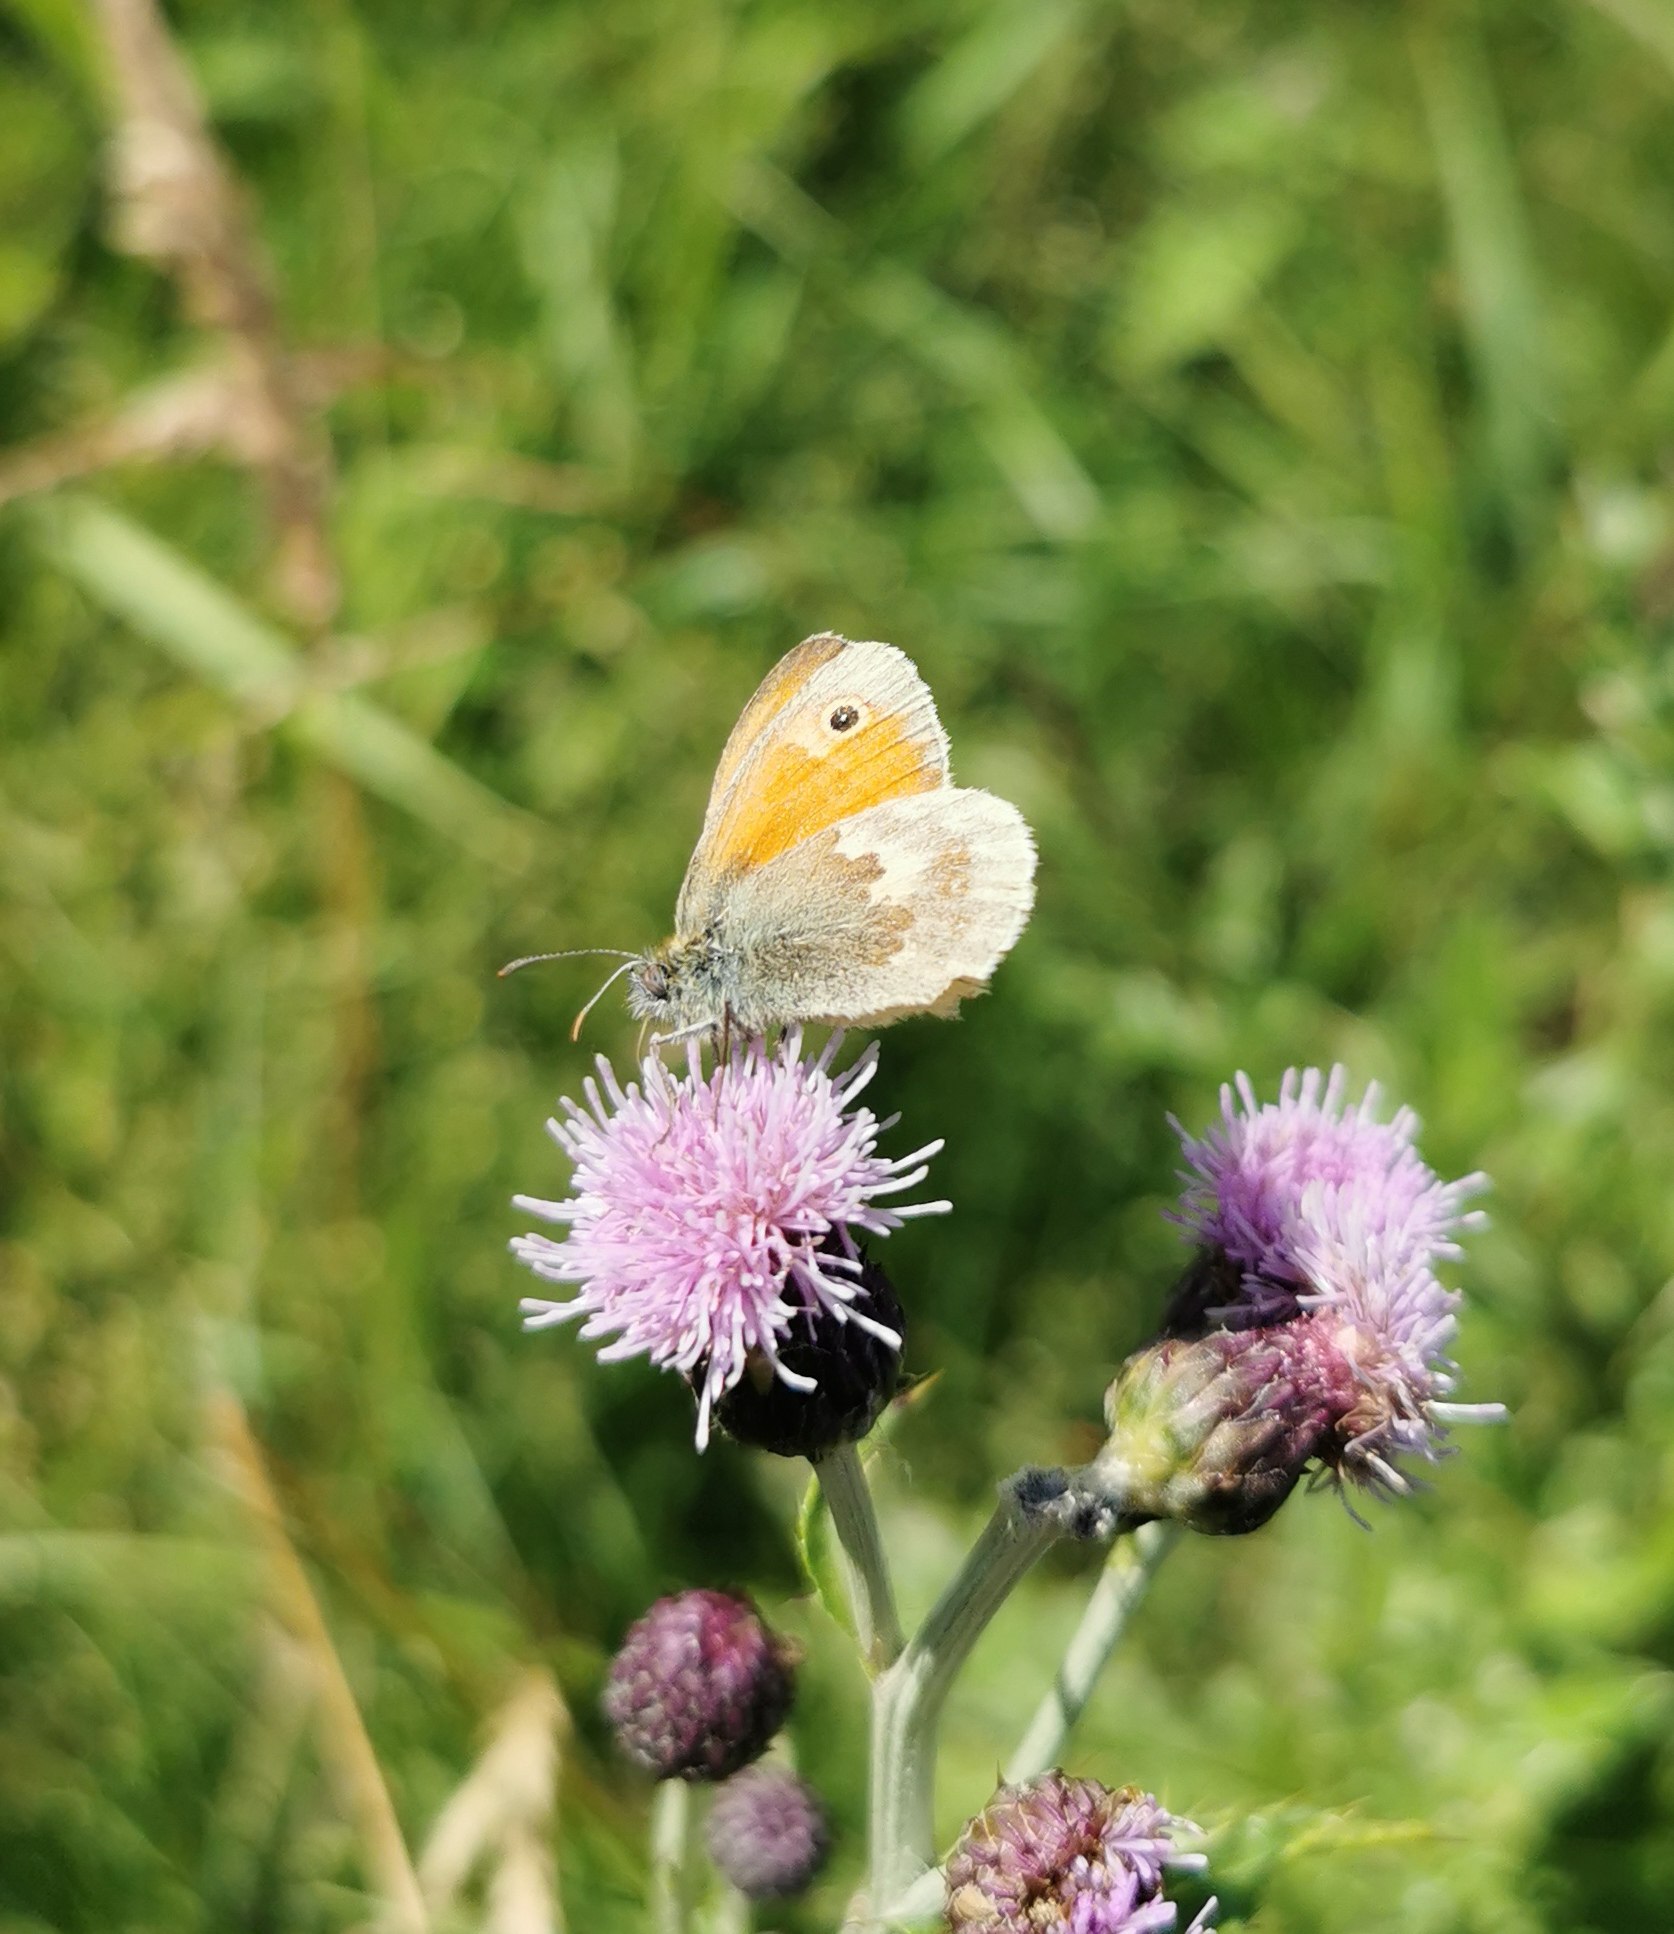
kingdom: Animalia
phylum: Arthropoda
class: Insecta
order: Lepidoptera
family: Nymphalidae
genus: Coenonympha
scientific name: Coenonympha pamphilus
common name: Okkergul randøje
